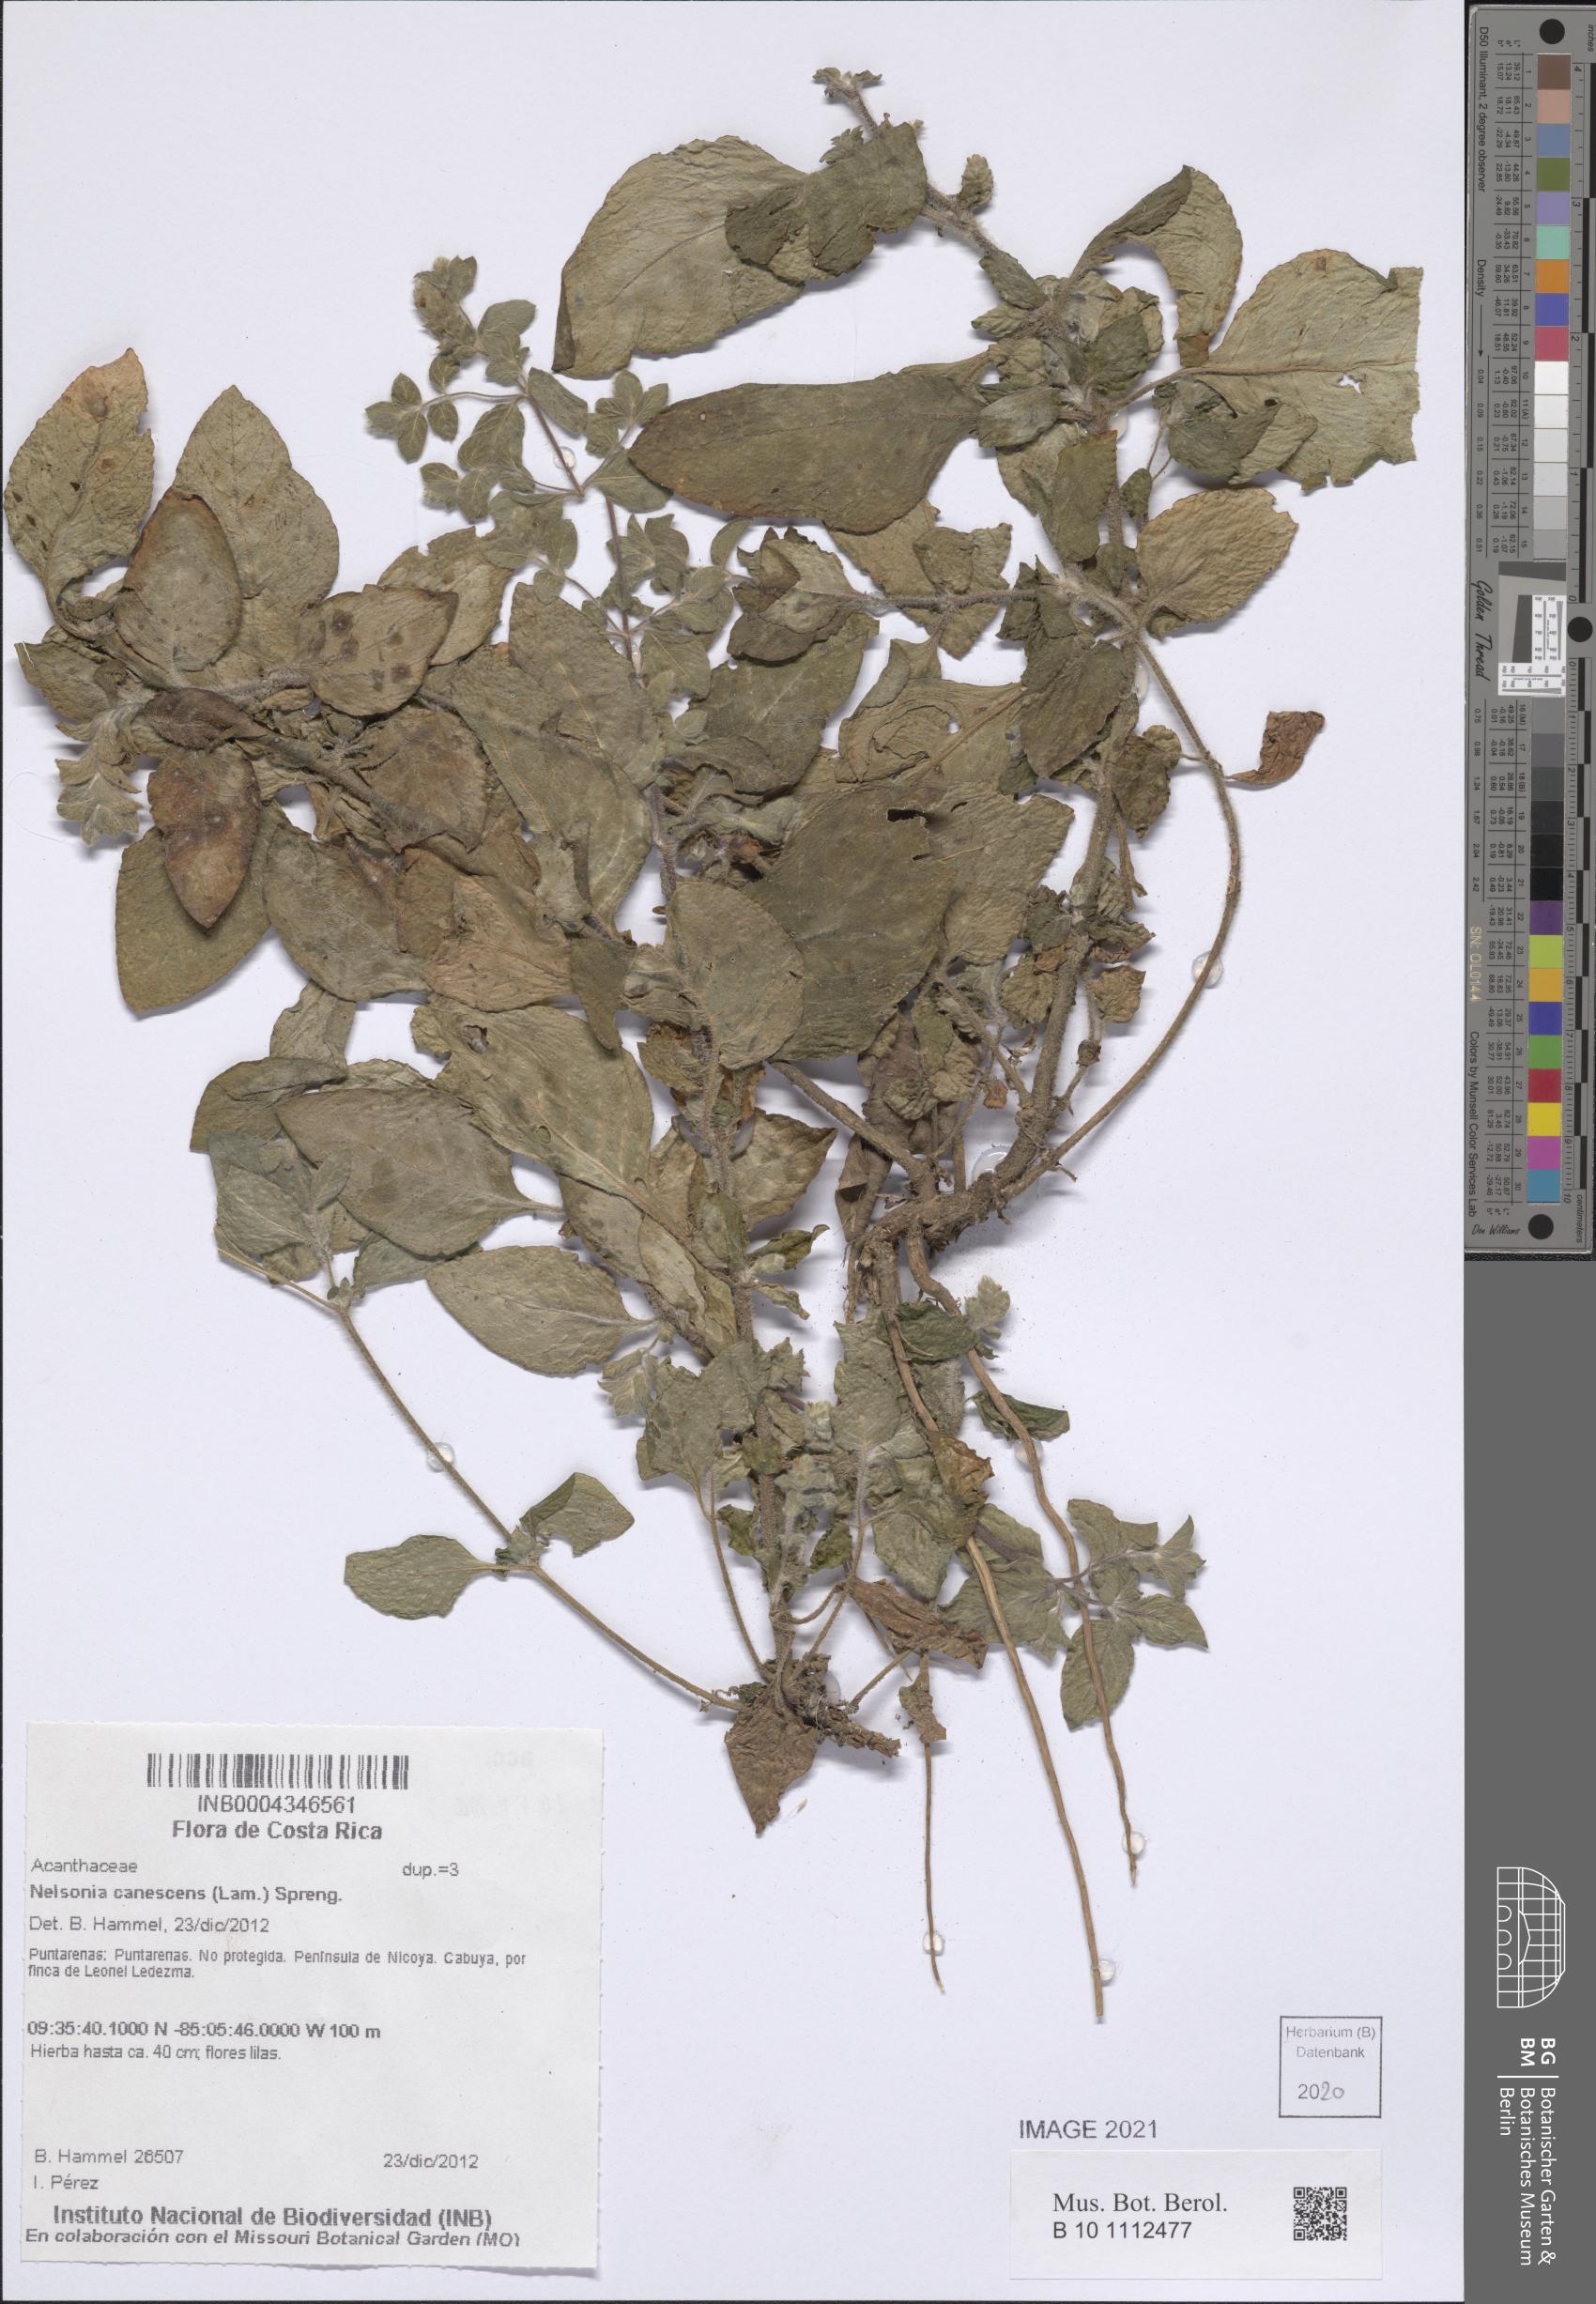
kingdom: Plantae
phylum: Tracheophyta
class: Magnoliopsida
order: Lamiales
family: Acanthaceae
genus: Nelsonia
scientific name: Nelsonia canescens
